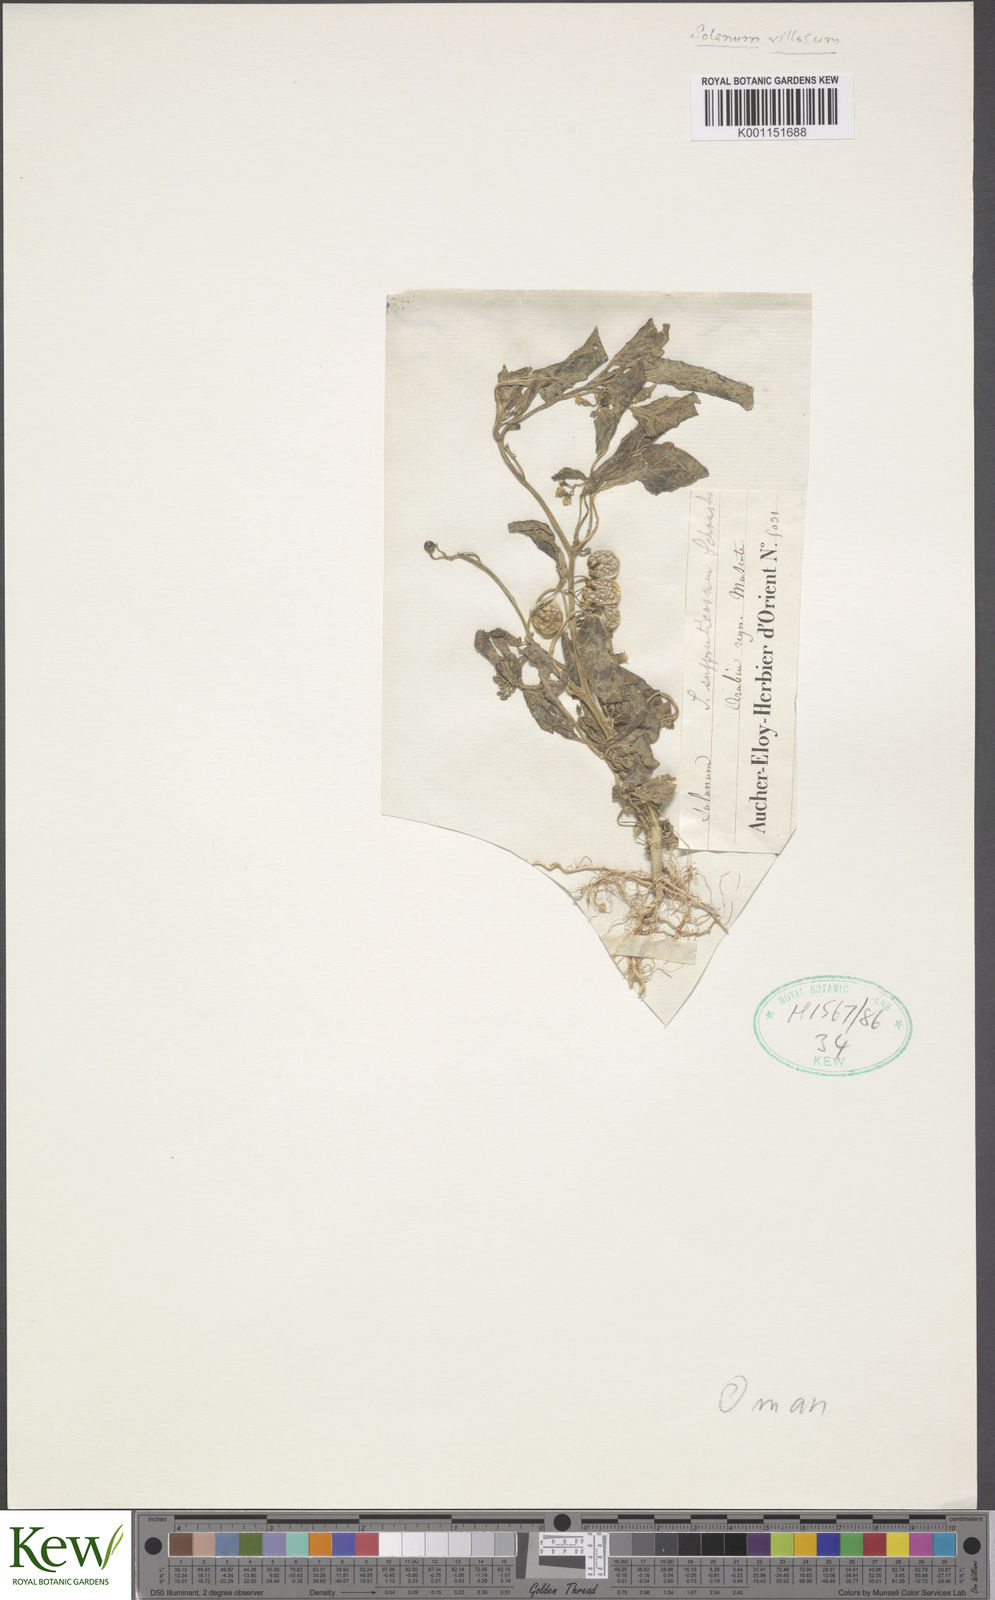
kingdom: Plantae
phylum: Tracheophyta
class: Magnoliopsida
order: Solanales
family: Solanaceae
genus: Solanum
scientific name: Solanum nigrum
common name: Black nightshade
